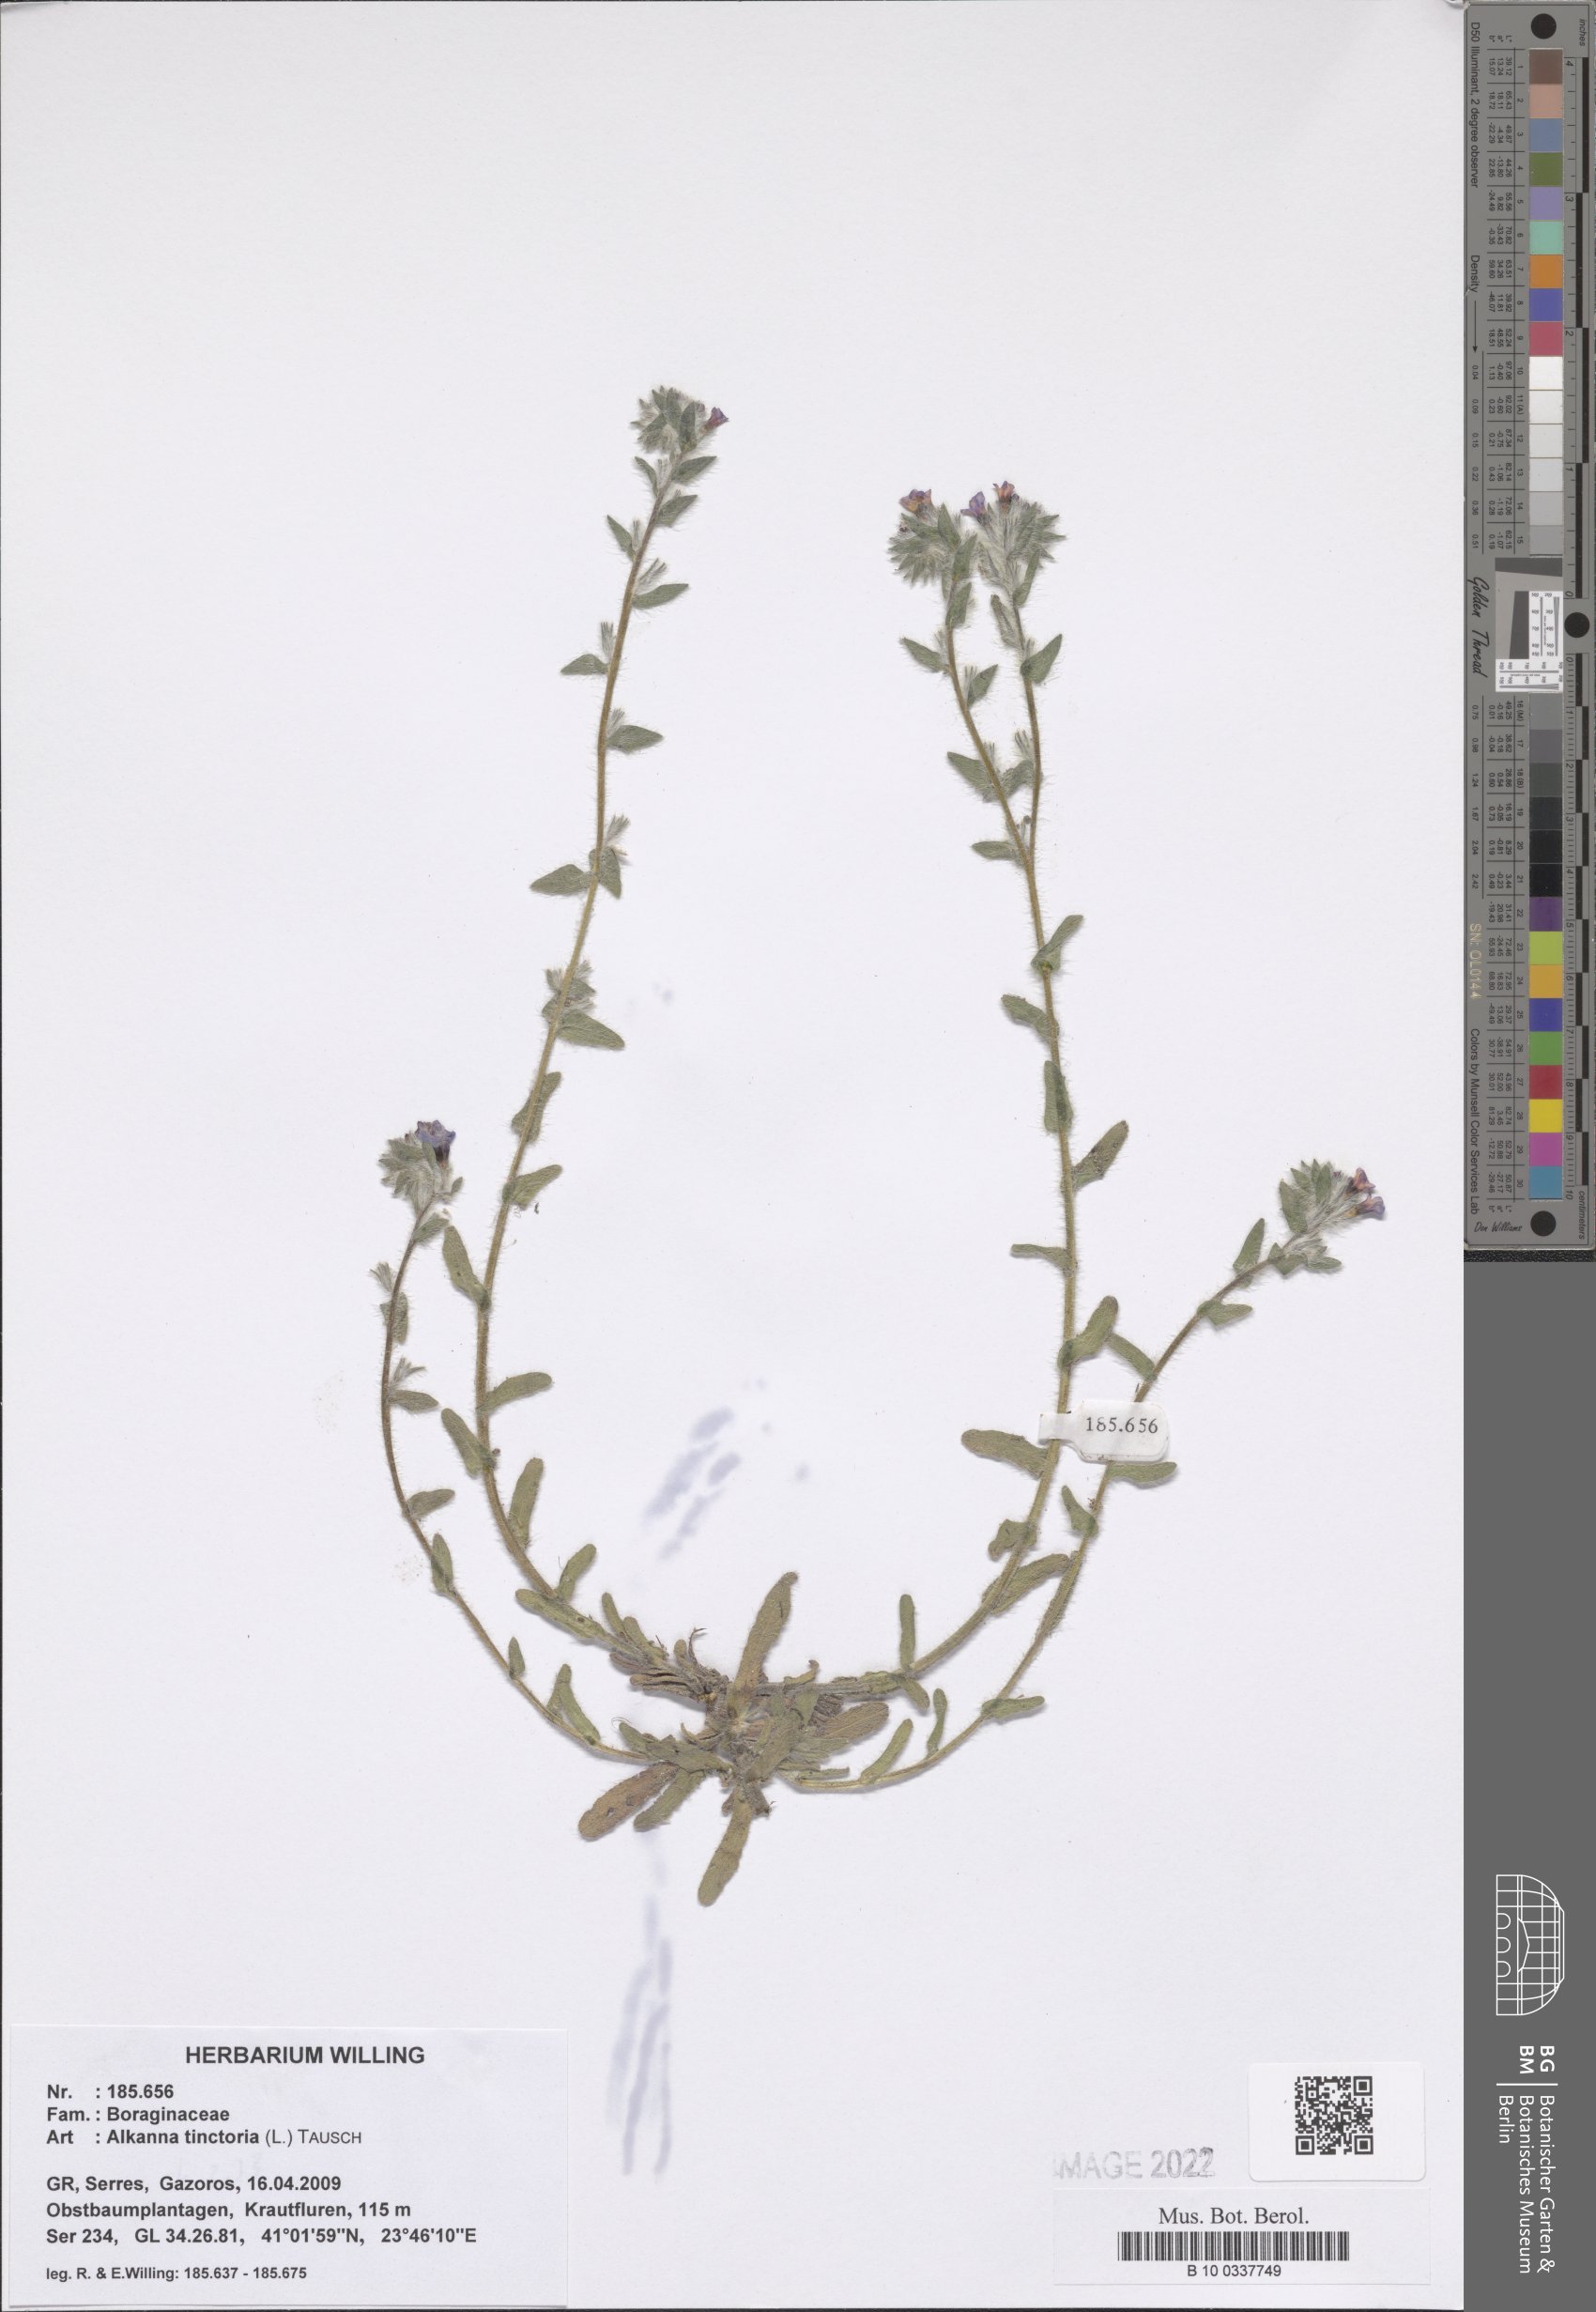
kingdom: Plantae
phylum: Tracheophyta
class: Magnoliopsida
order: Boraginales
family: Boraginaceae
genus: Alkanna
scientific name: Alkanna tinctoria
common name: Dyer's-alkanet
